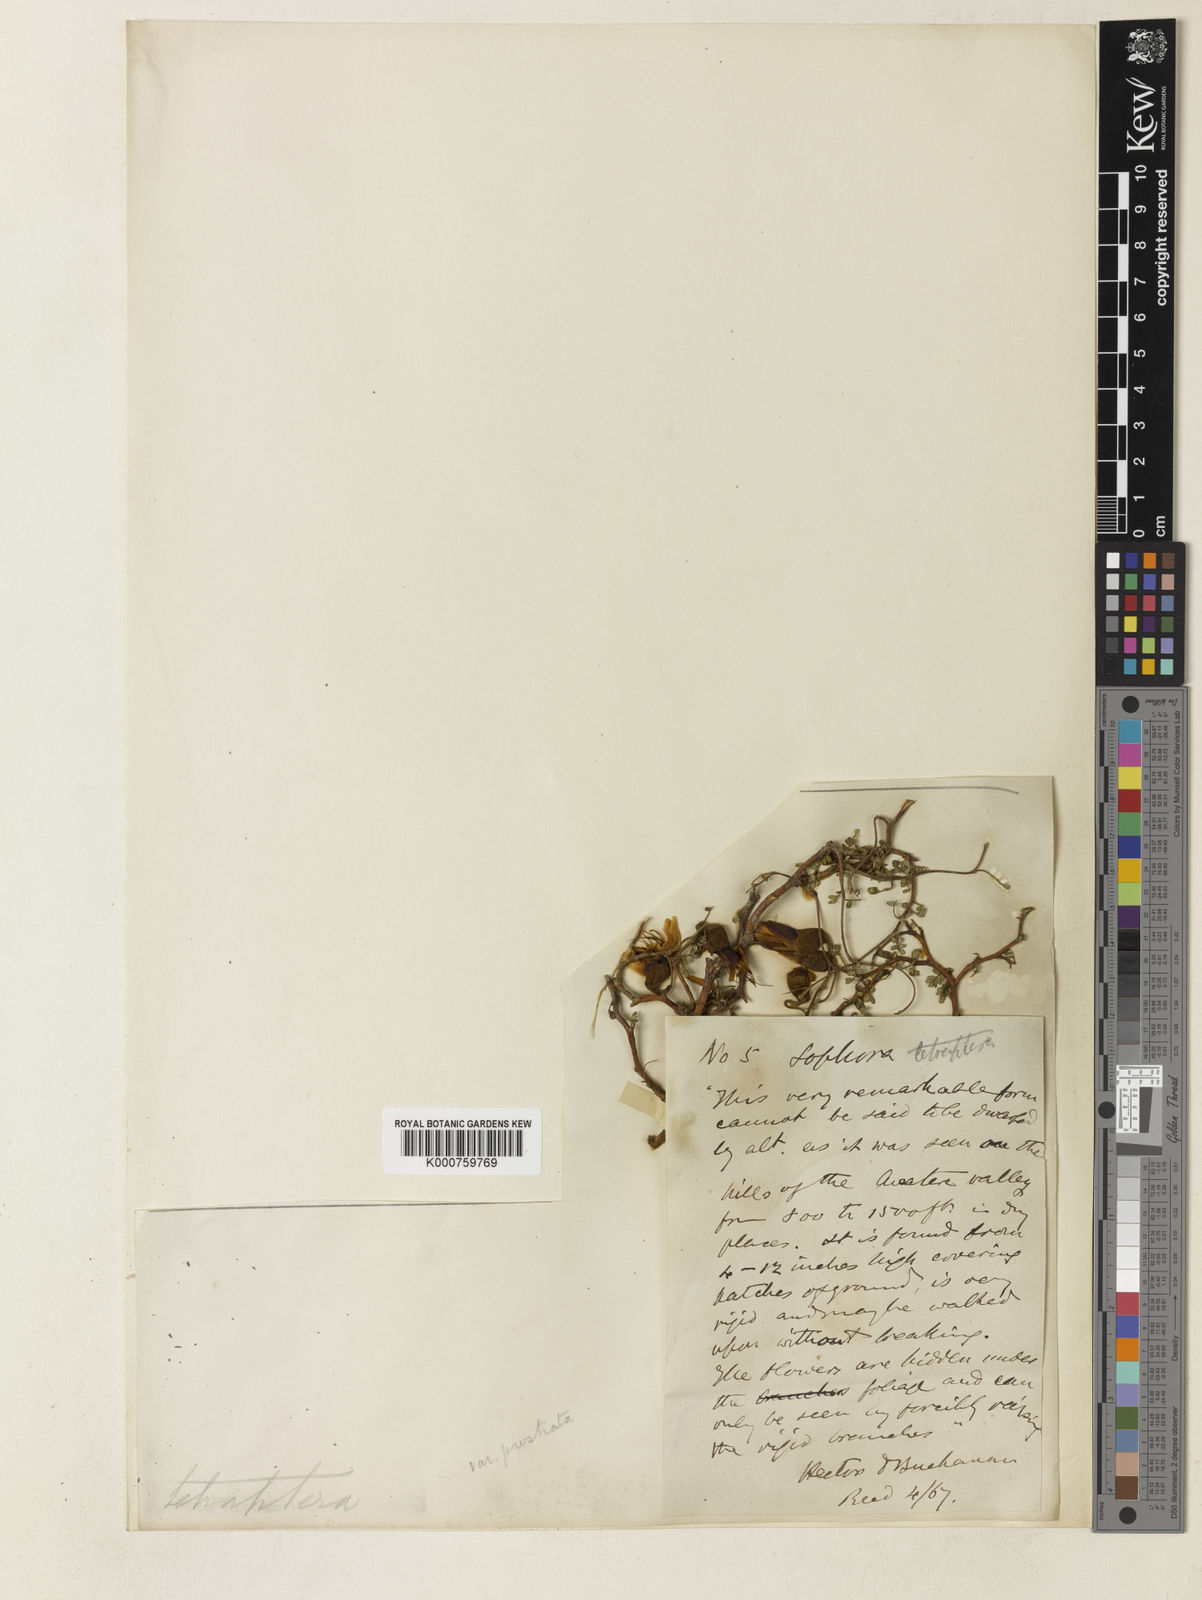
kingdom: Plantae
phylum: Tracheophyta
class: Magnoliopsida
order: Fabales
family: Fabaceae
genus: Sophora
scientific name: Sophora prostrata
